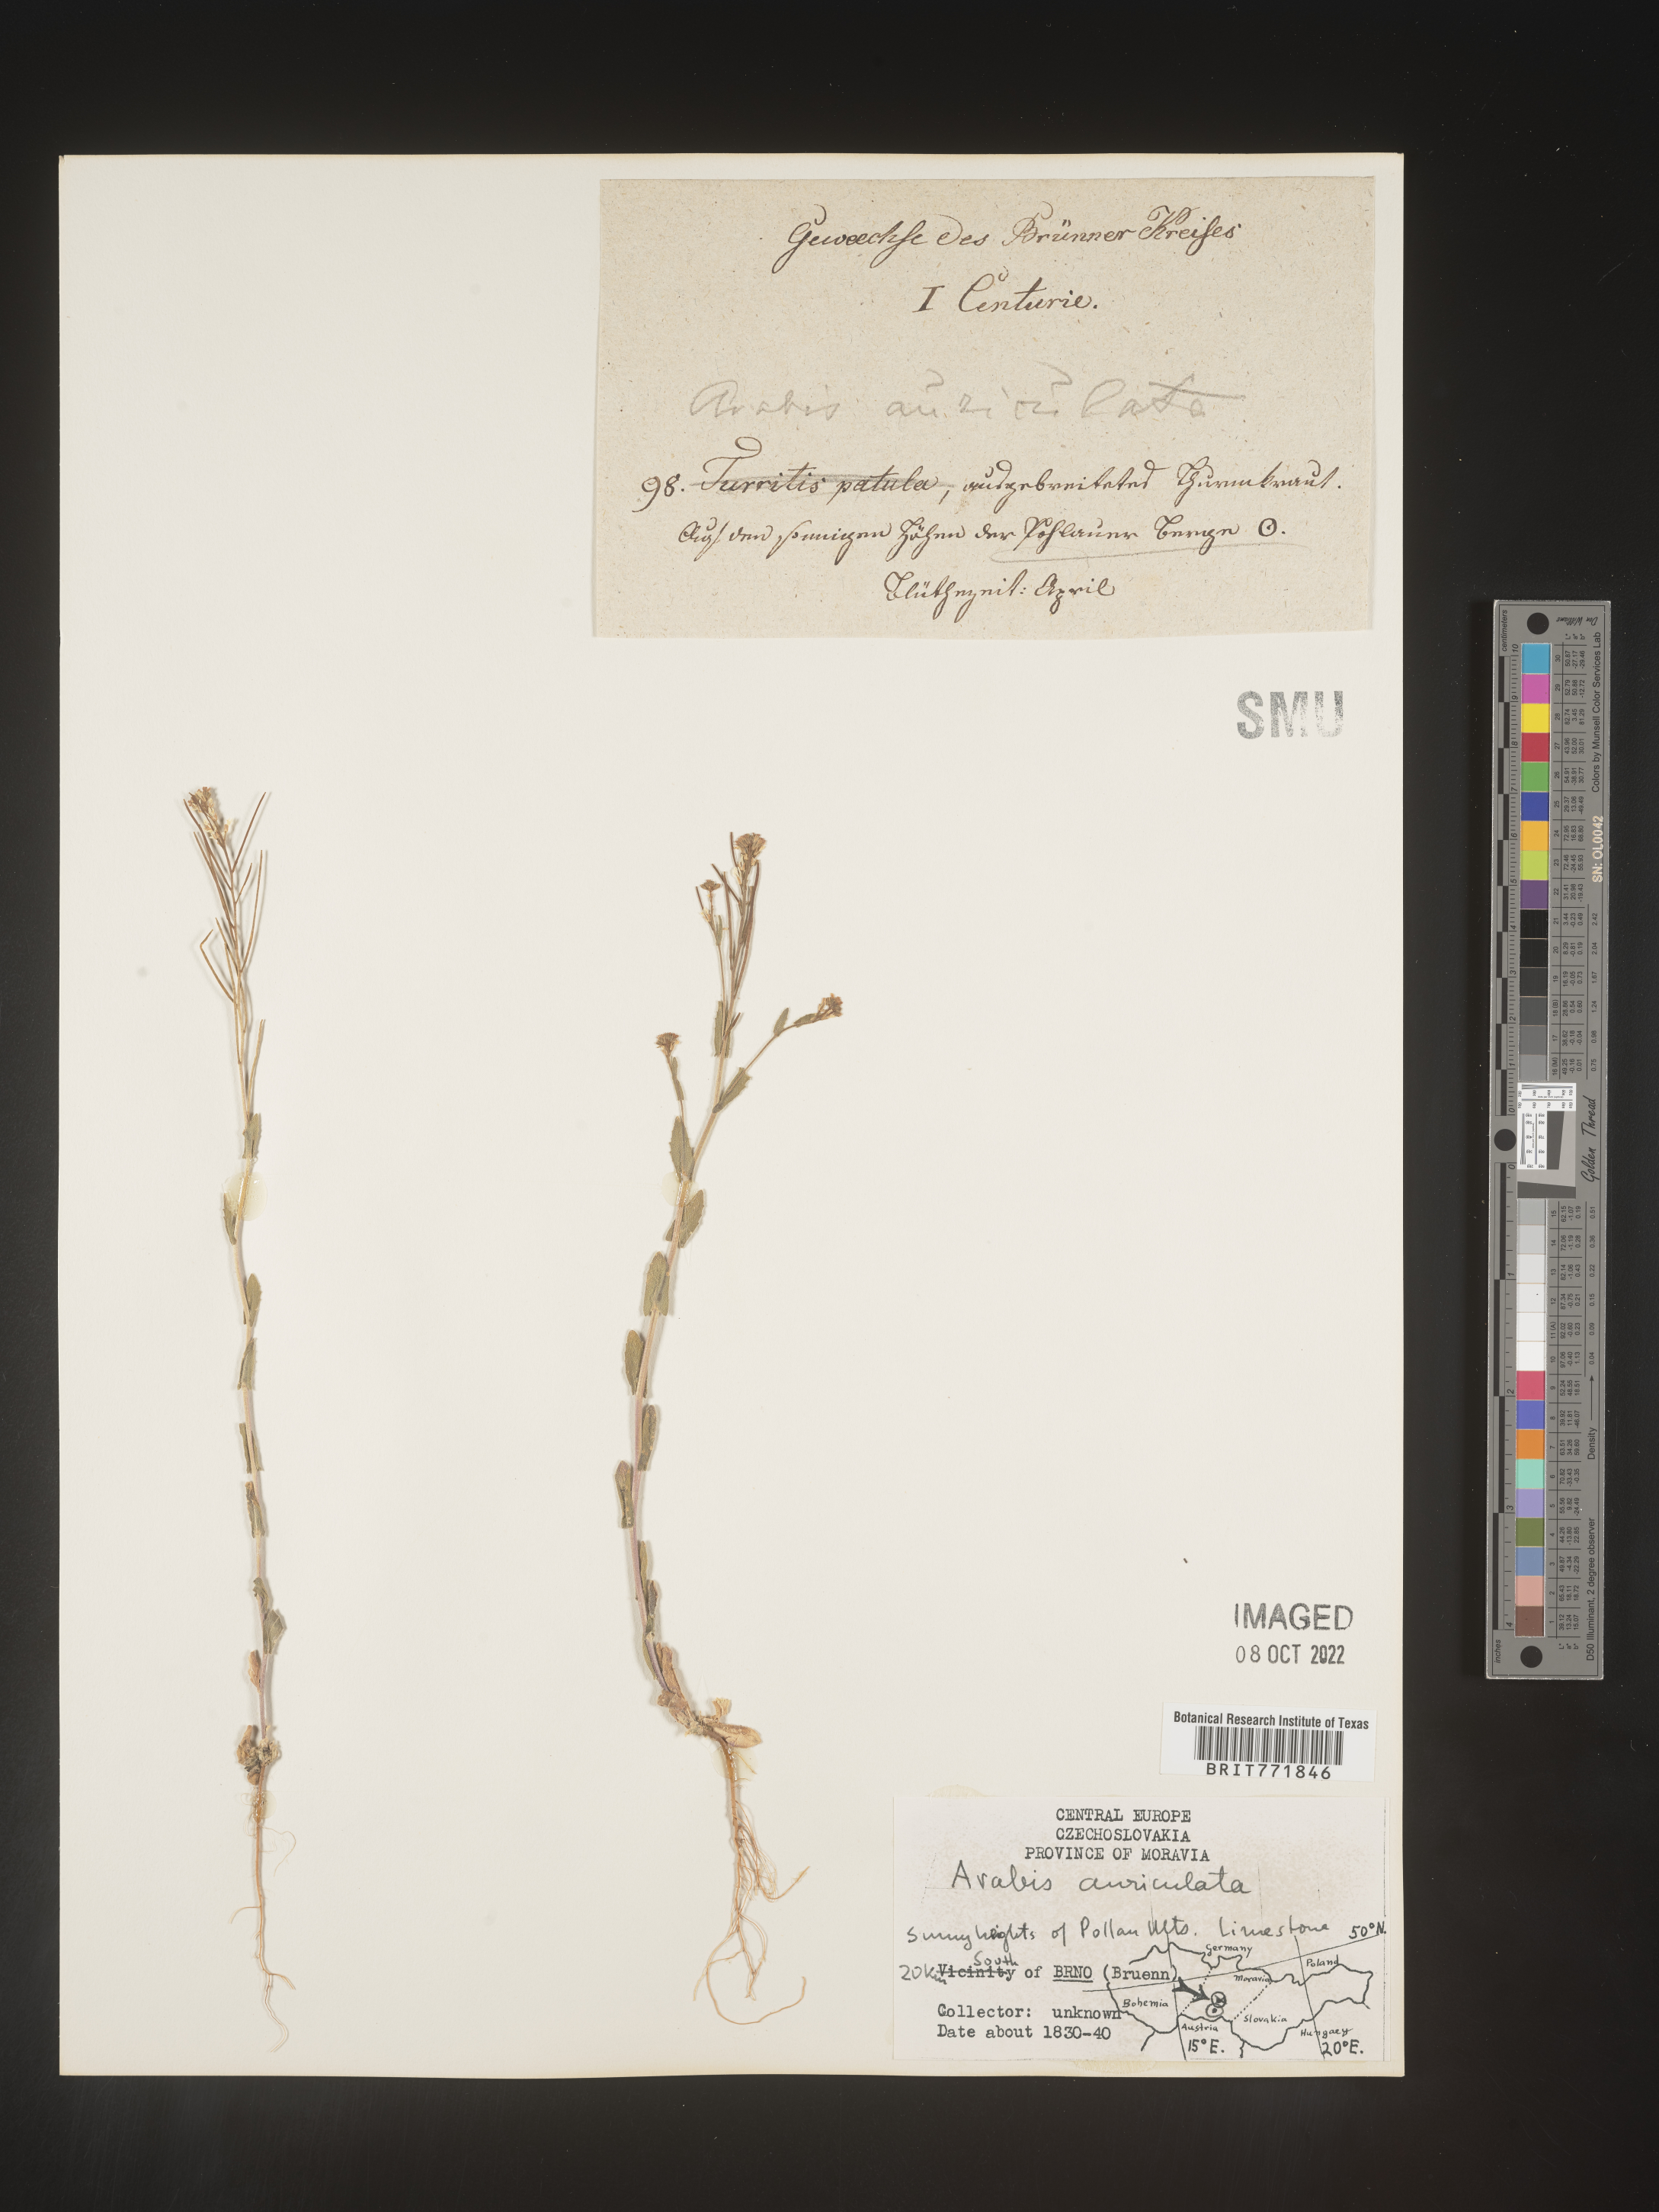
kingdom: Plantae
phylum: Tracheophyta
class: Magnoliopsida
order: Brassicales
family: Brassicaceae
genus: Arabis
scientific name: Arabis
